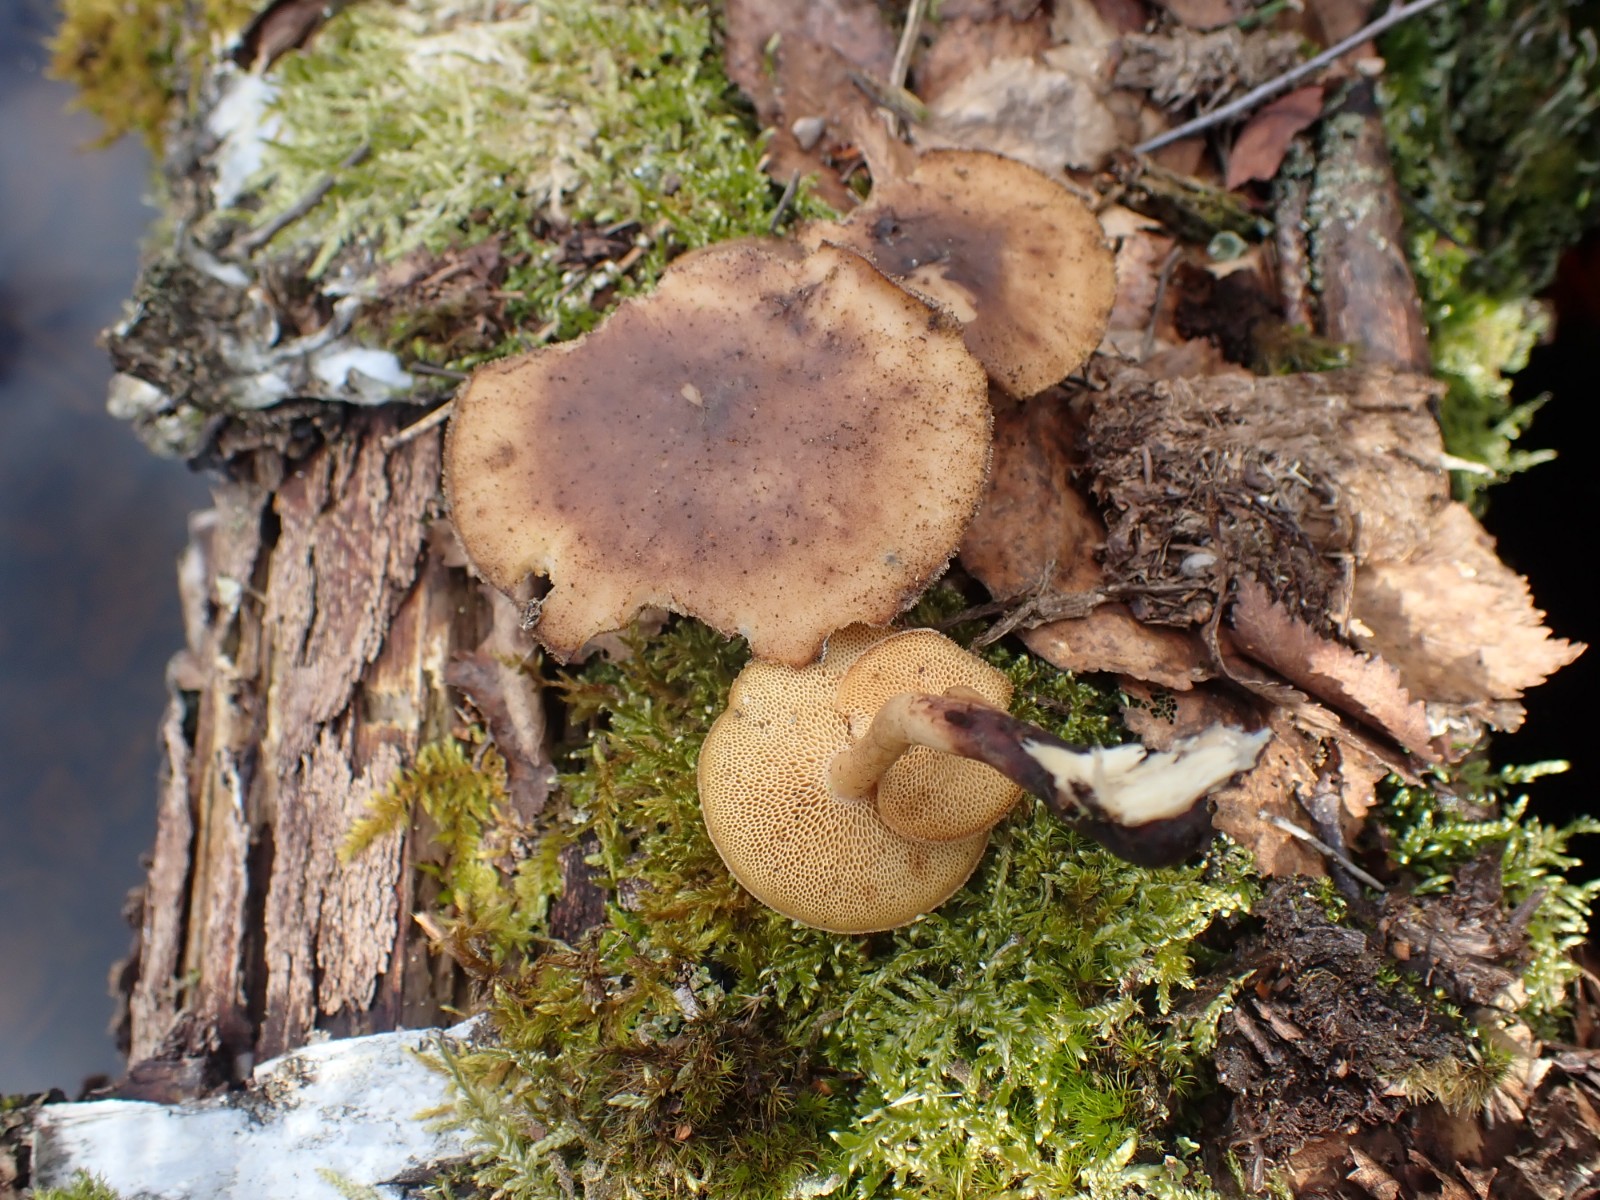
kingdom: Fungi
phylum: Basidiomycota
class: Agaricomycetes
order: Polyporales
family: Polyporaceae
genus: Lentinus
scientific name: Lentinus brumalis
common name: vinter-stilkporesvamp
